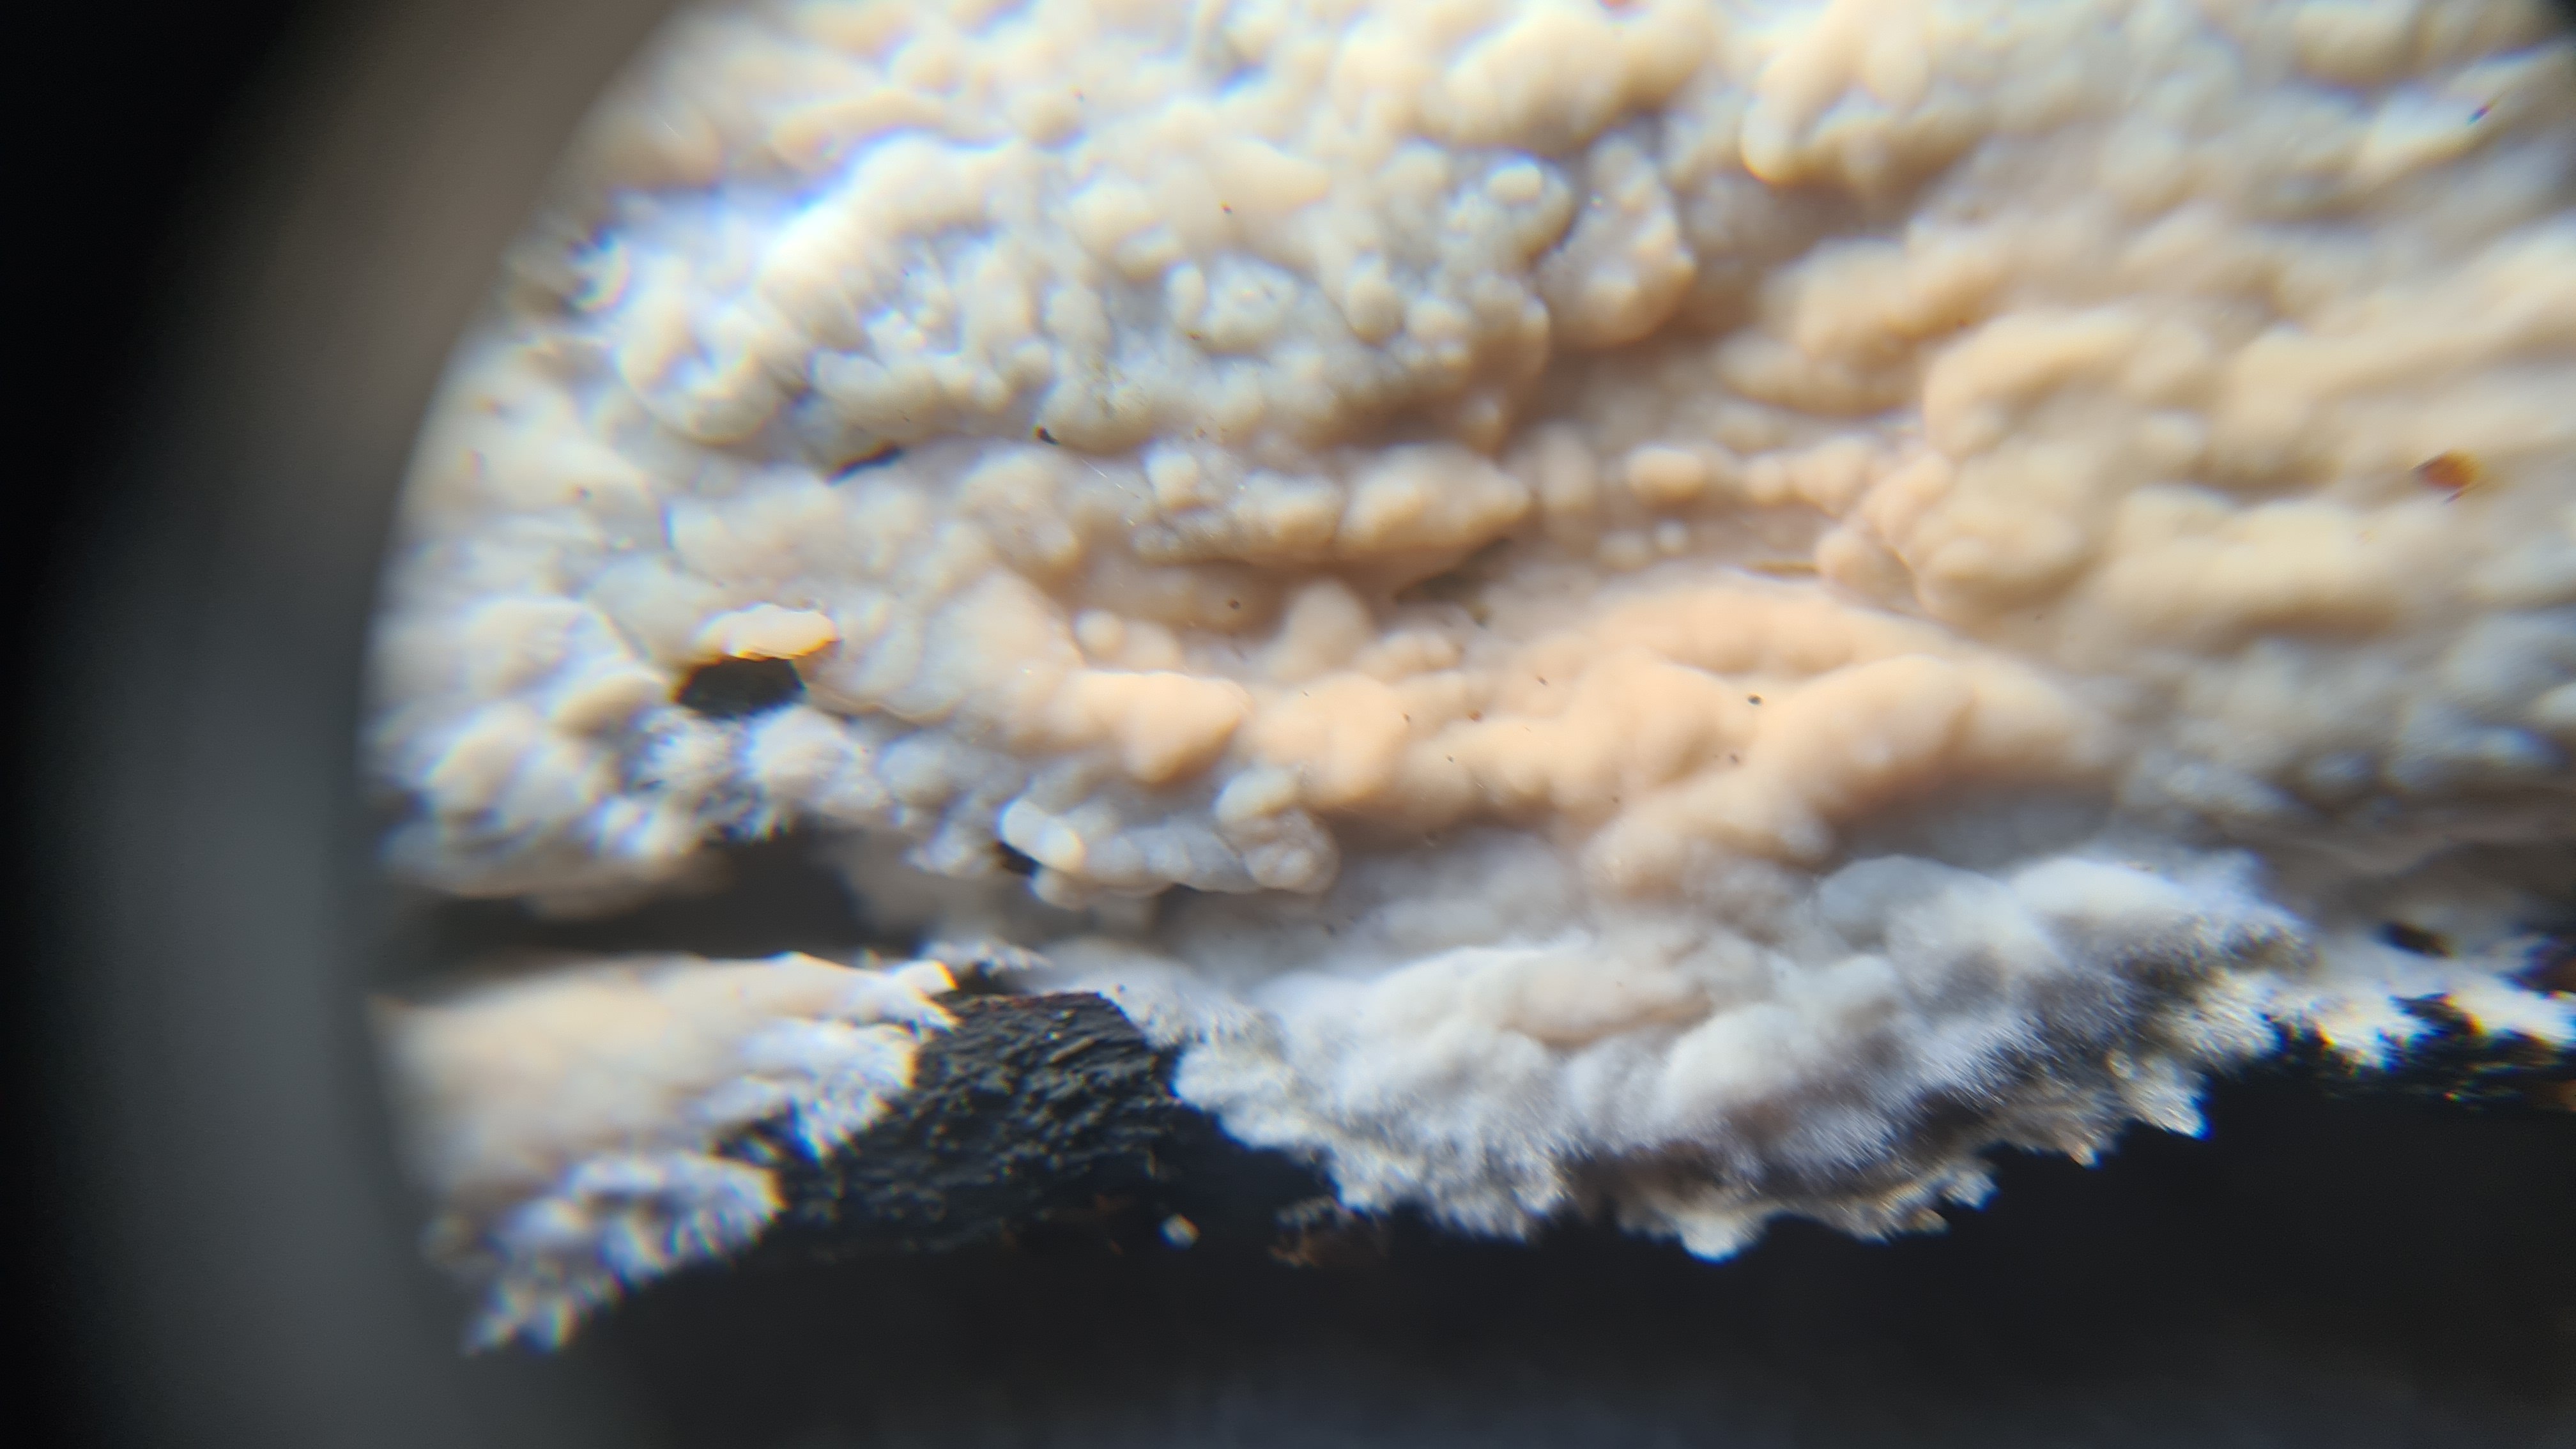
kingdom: Fungi
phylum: Basidiomycota
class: Agaricomycetes
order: Polyporales
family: Phanerochaetaceae
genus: Phanerochaete
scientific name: Phanerochaete
